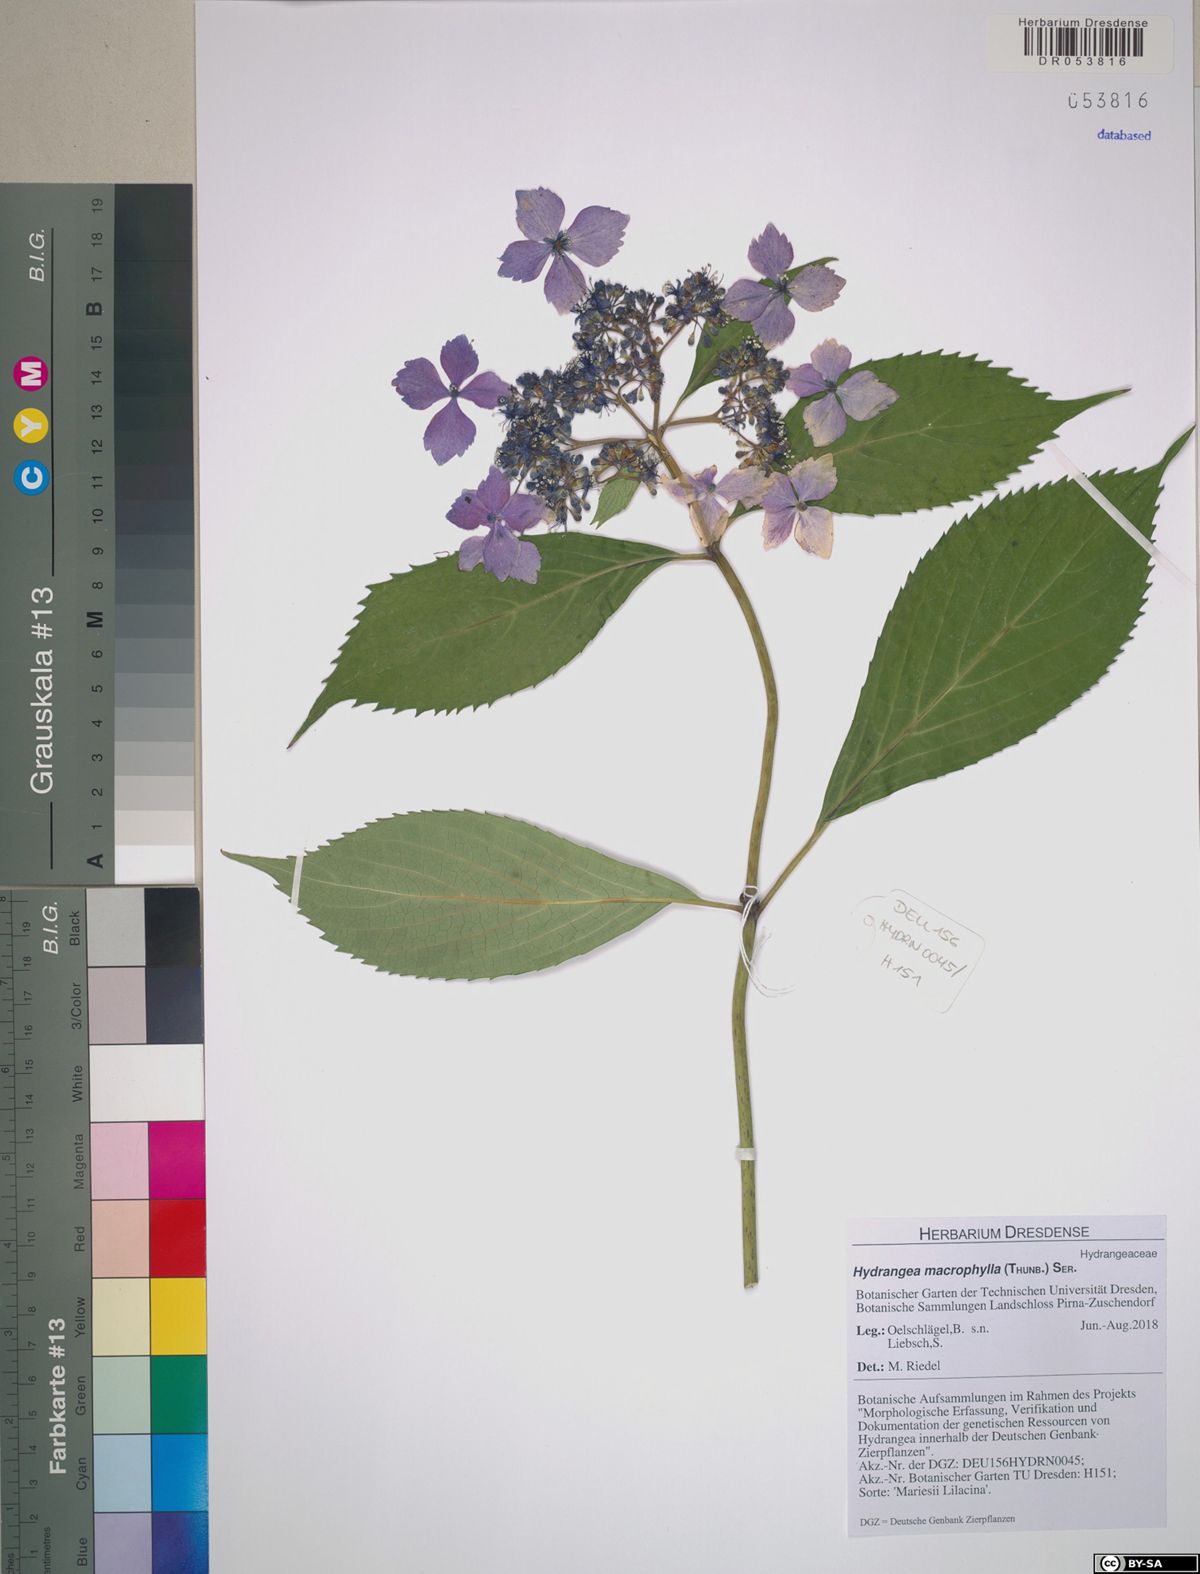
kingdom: Plantae
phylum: Tracheophyta
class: Magnoliopsida
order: Cornales
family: Hydrangeaceae
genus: Hydrangea
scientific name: Hydrangea macrophylla
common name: Hydrangea
